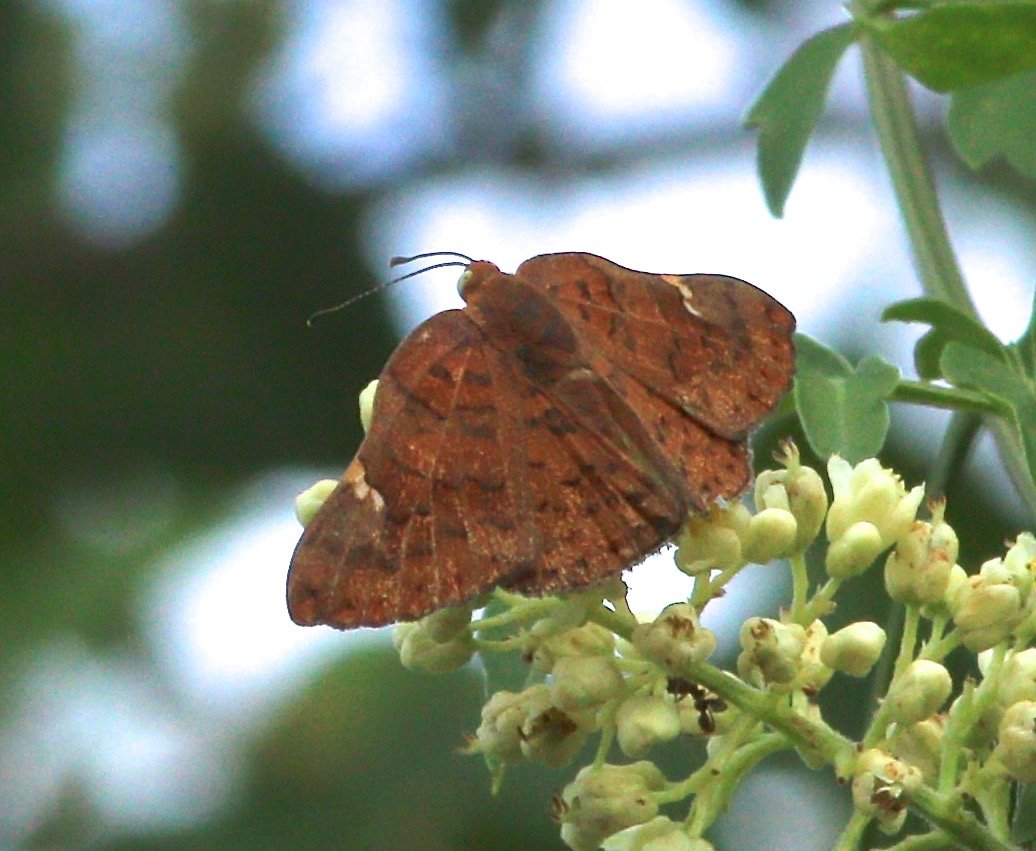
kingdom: Animalia
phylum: Arthropoda
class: Insecta
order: Lepidoptera
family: Lycaenidae
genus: Emesis
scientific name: Emesis emesia
